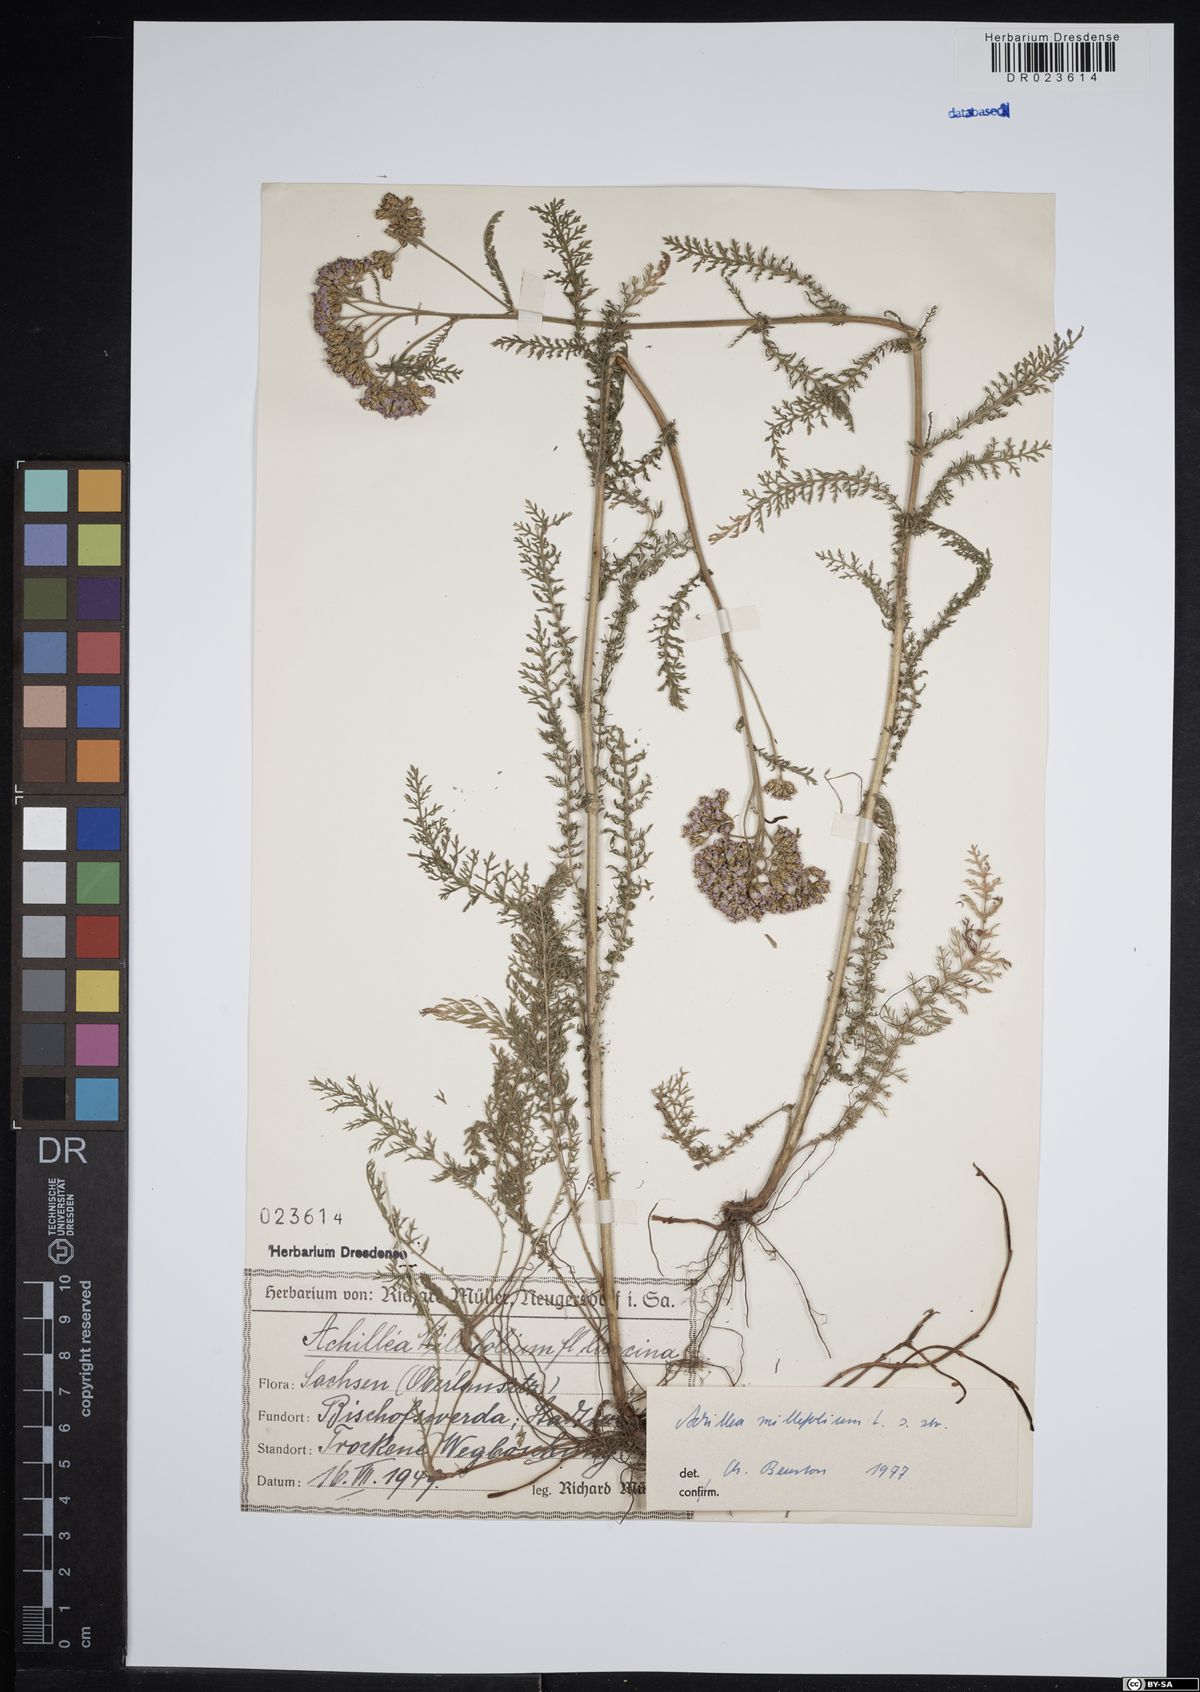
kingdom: Plantae
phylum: Tracheophyta
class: Magnoliopsida
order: Asterales
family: Asteraceae
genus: Achillea
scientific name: Achillea millefolium
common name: Yarrow
